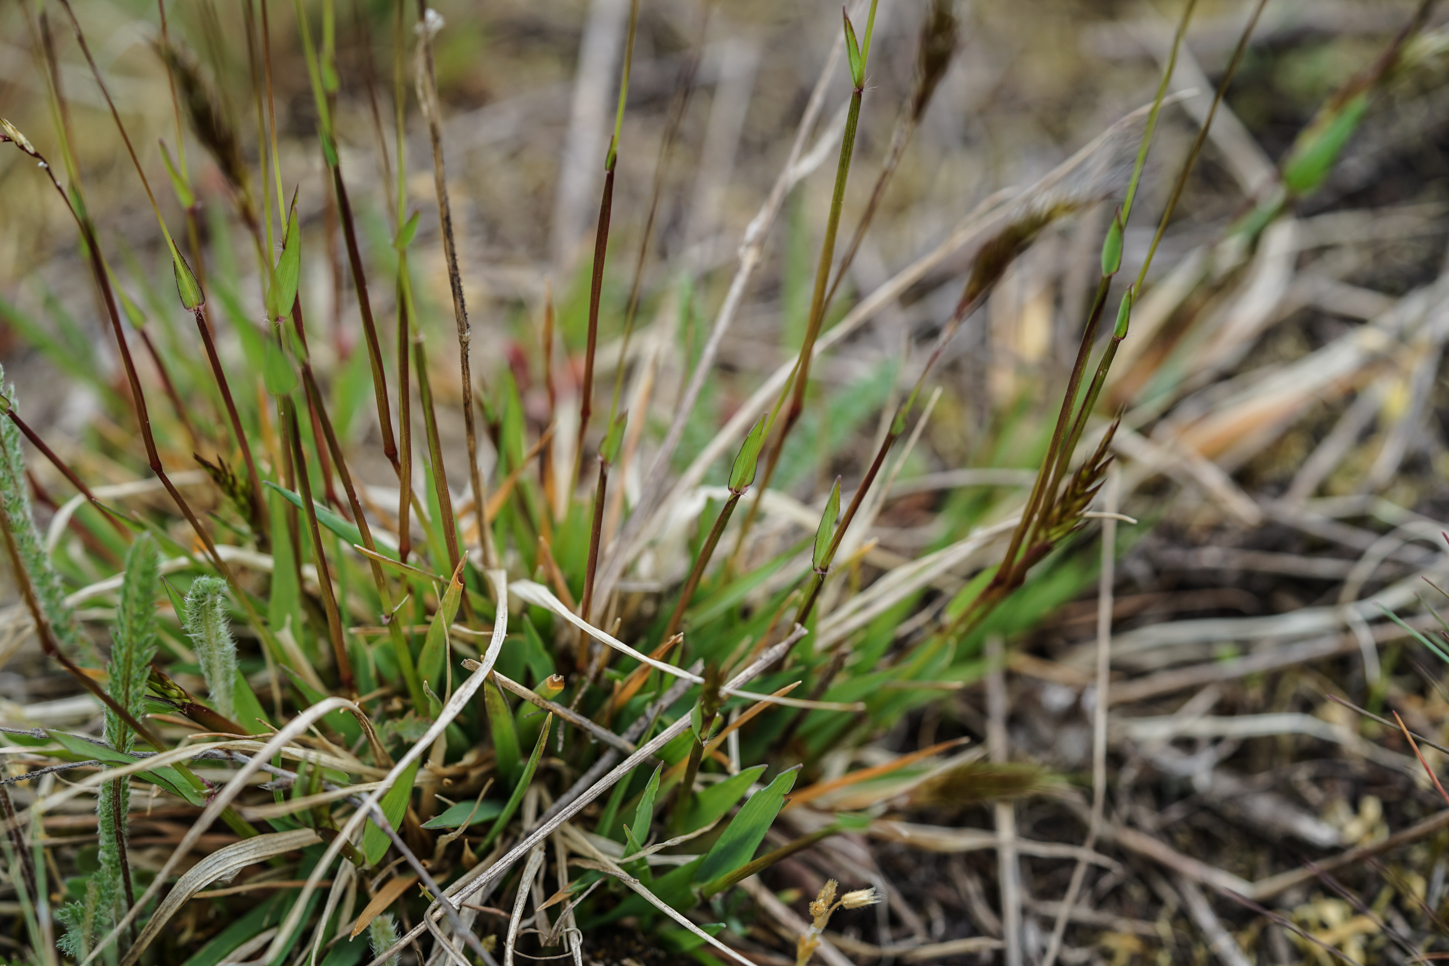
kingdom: Plantae
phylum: Tracheophyta
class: Liliopsida
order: Poales
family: Poaceae
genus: Anthoxanthum
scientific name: Anthoxanthum odoratum
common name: Sweet vernalgrass
